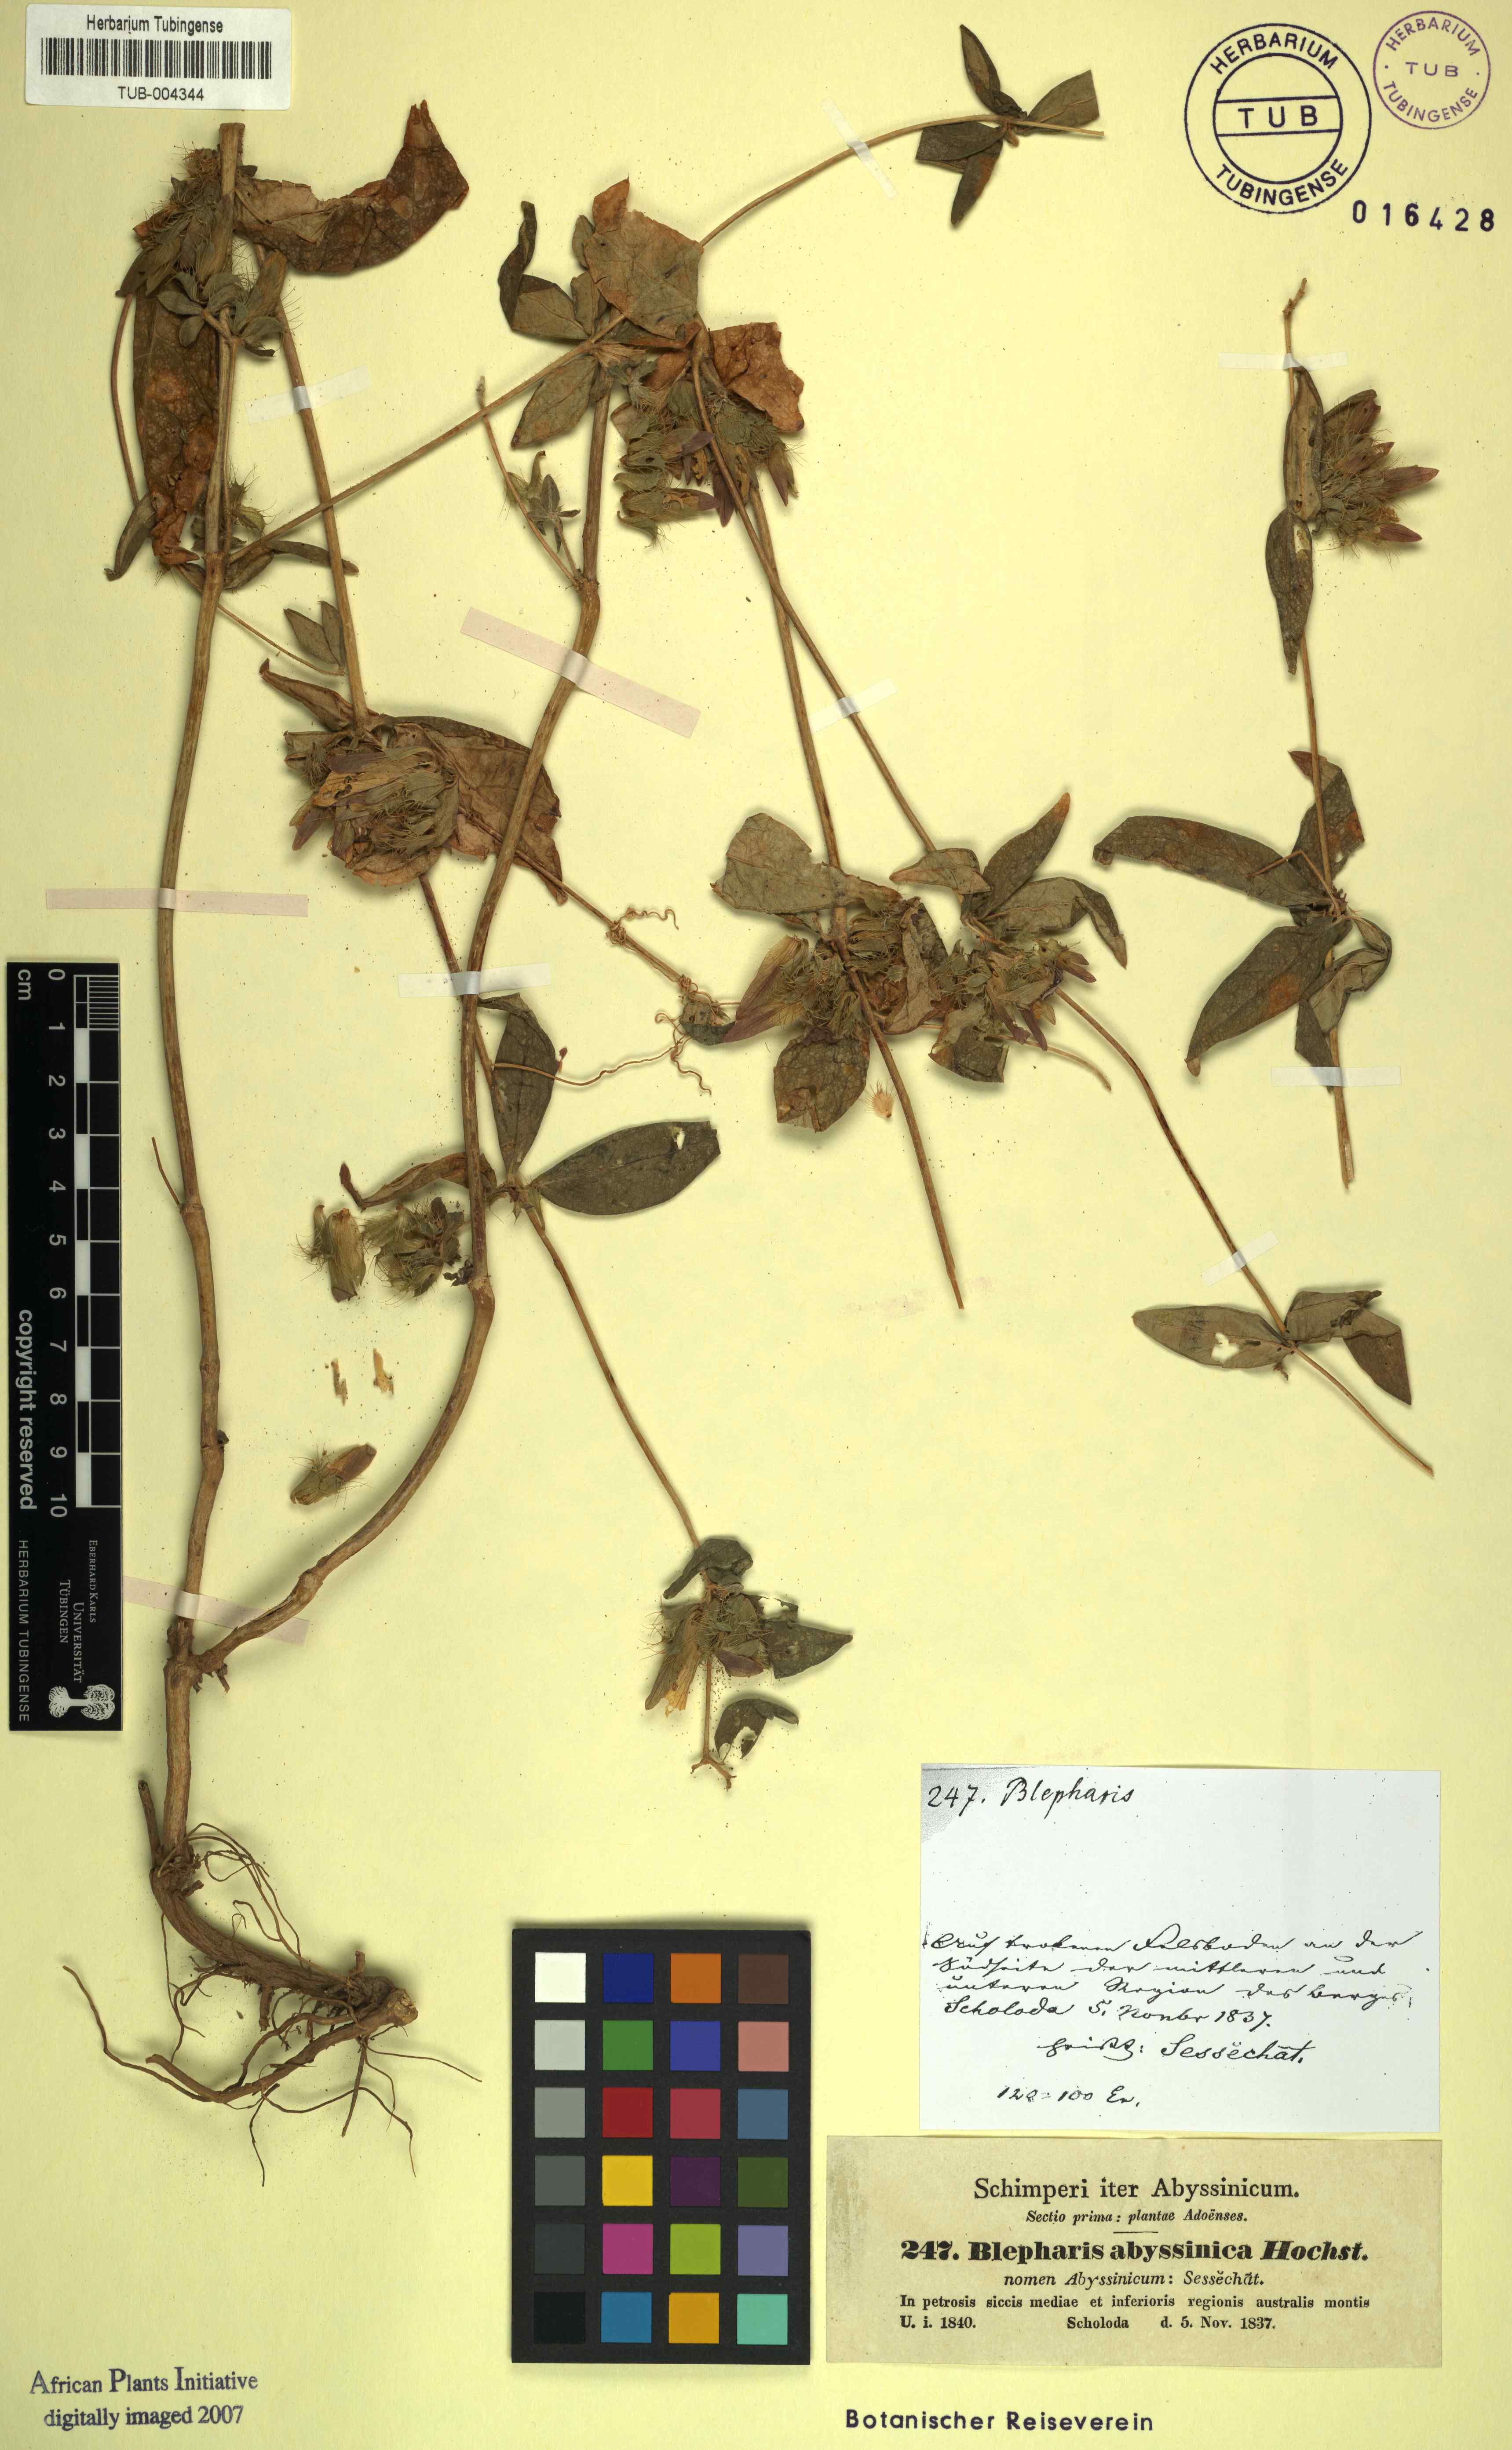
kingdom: Plantae
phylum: Tracheophyta
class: Magnoliopsida
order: Lamiales
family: Acanthaceae
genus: Blepharis
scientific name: Blepharis maderaspatensis
